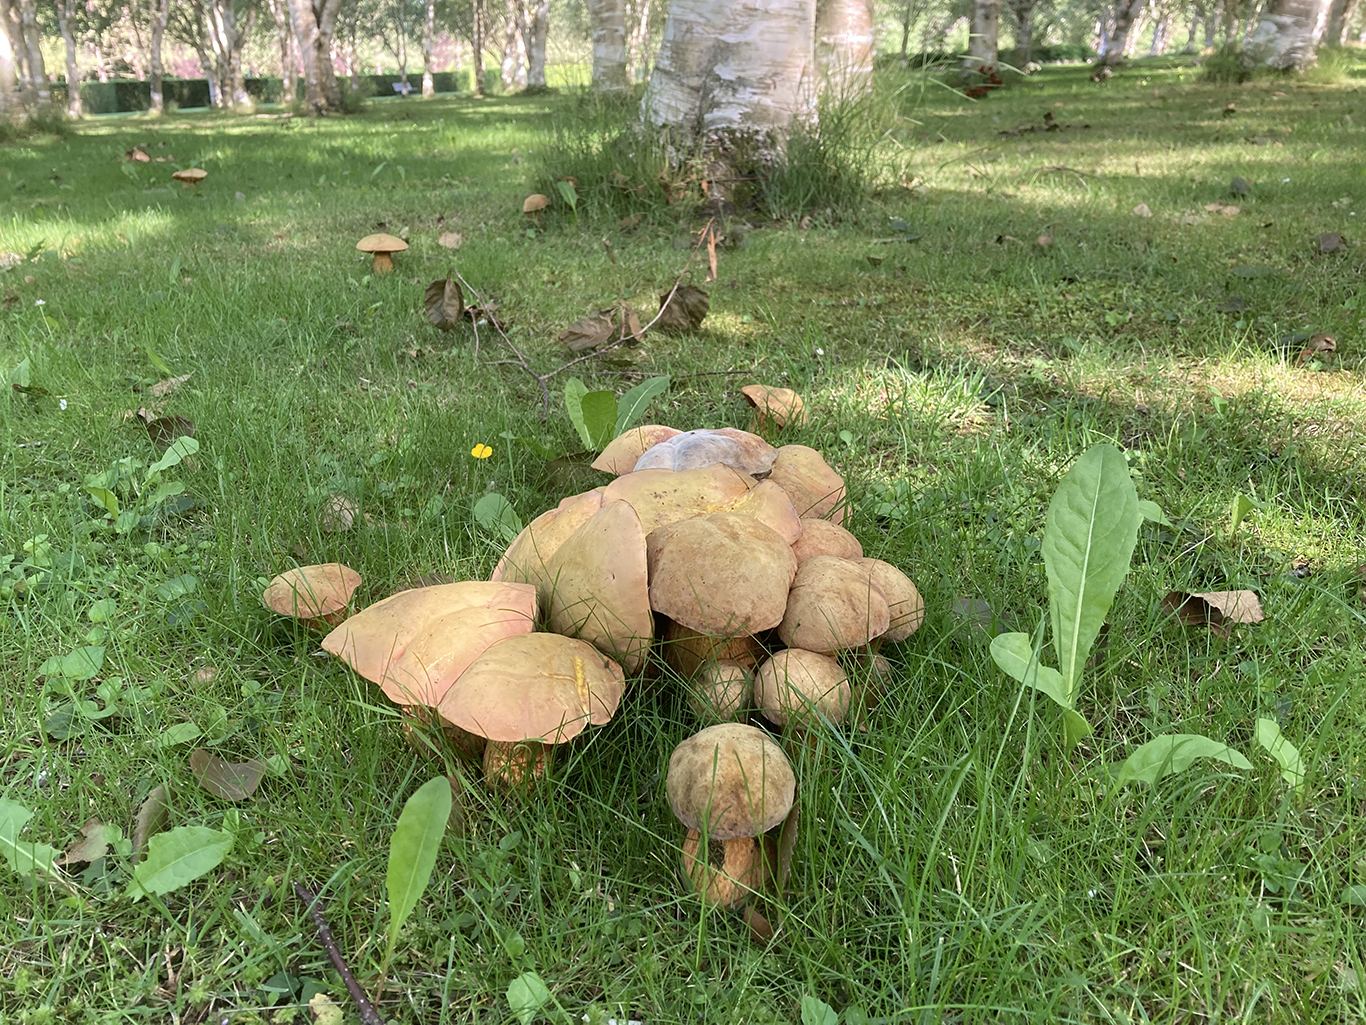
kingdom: Fungi
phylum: Basidiomycota
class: Agaricomycetes
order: Boletales
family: Boletaceae
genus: Suillellus
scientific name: Suillellus luridus
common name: netstokket indigorørhat
